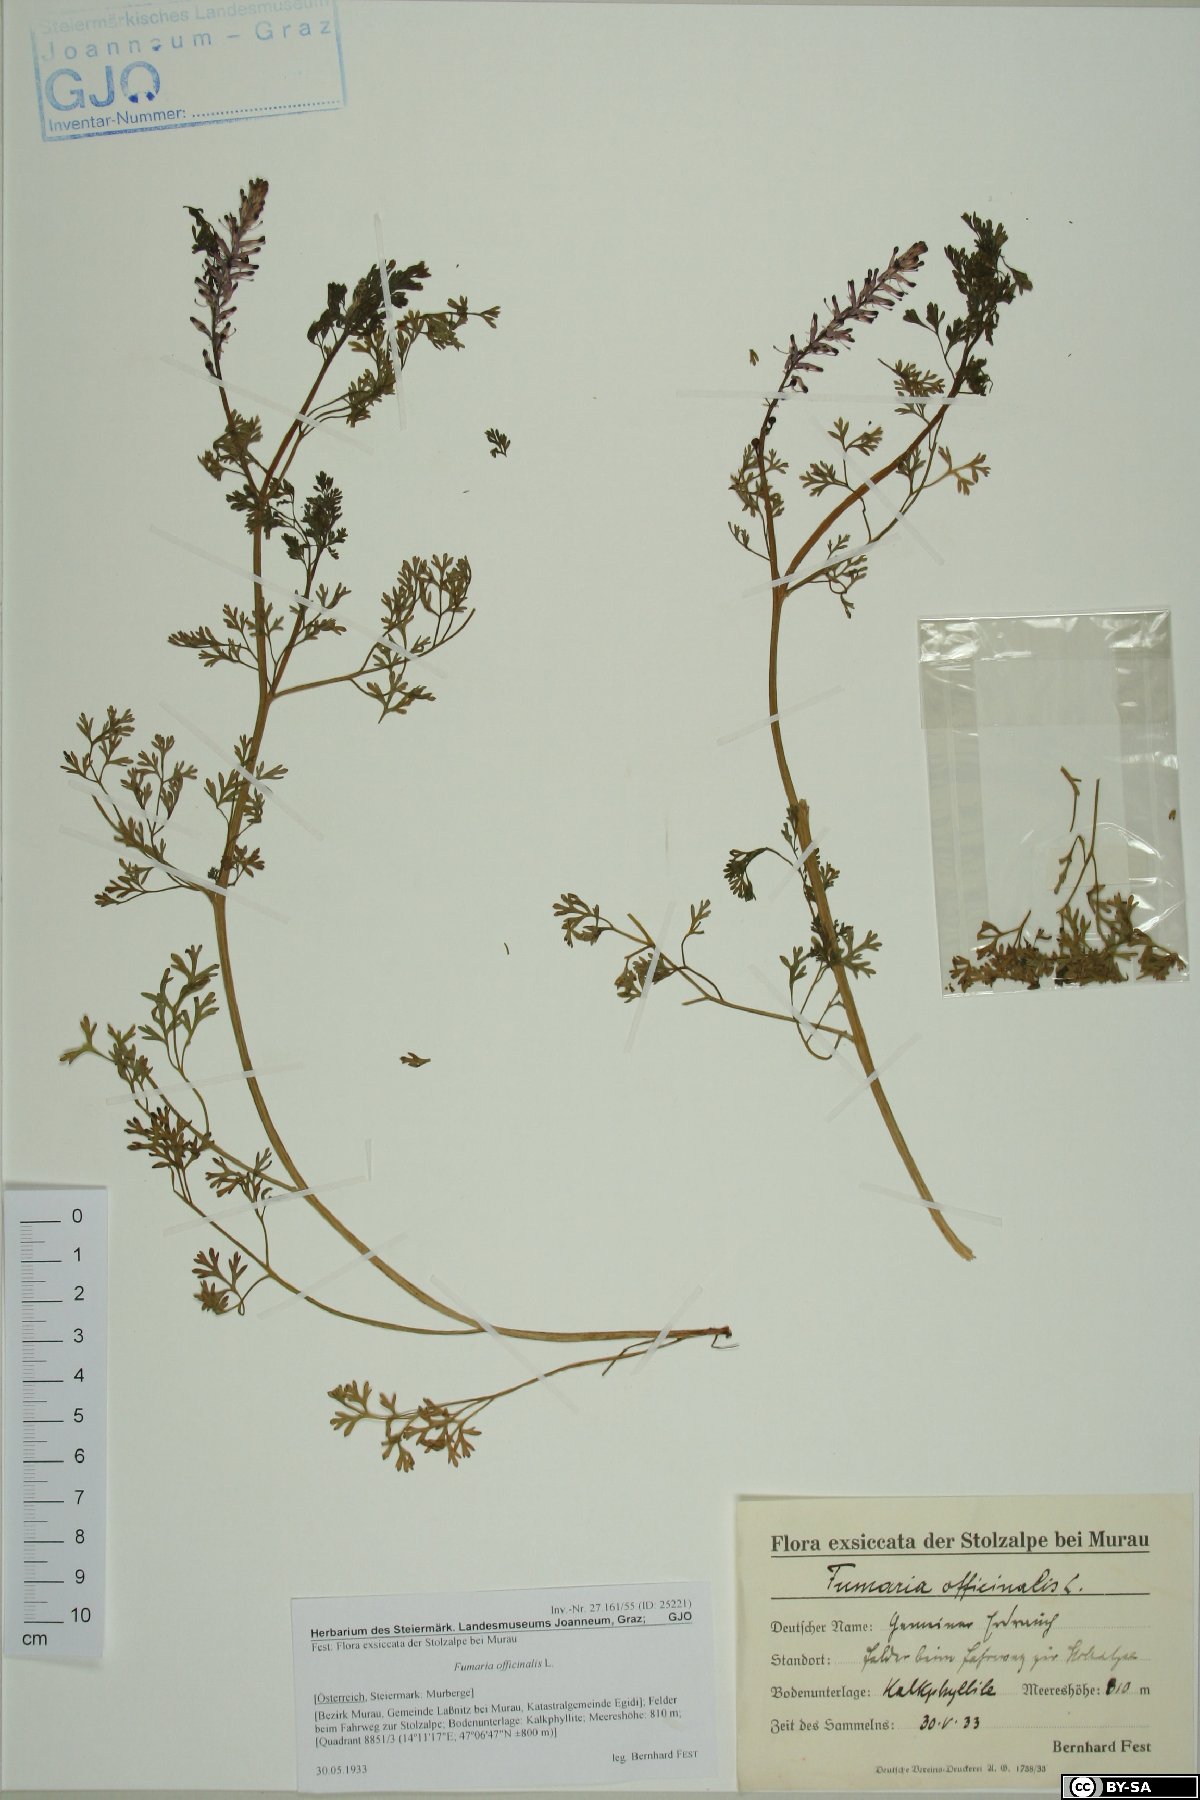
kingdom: Plantae
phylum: Tracheophyta
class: Magnoliopsida
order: Ranunculales
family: Papaveraceae
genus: Fumaria
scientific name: Fumaria officinalis
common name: Common fumitory
